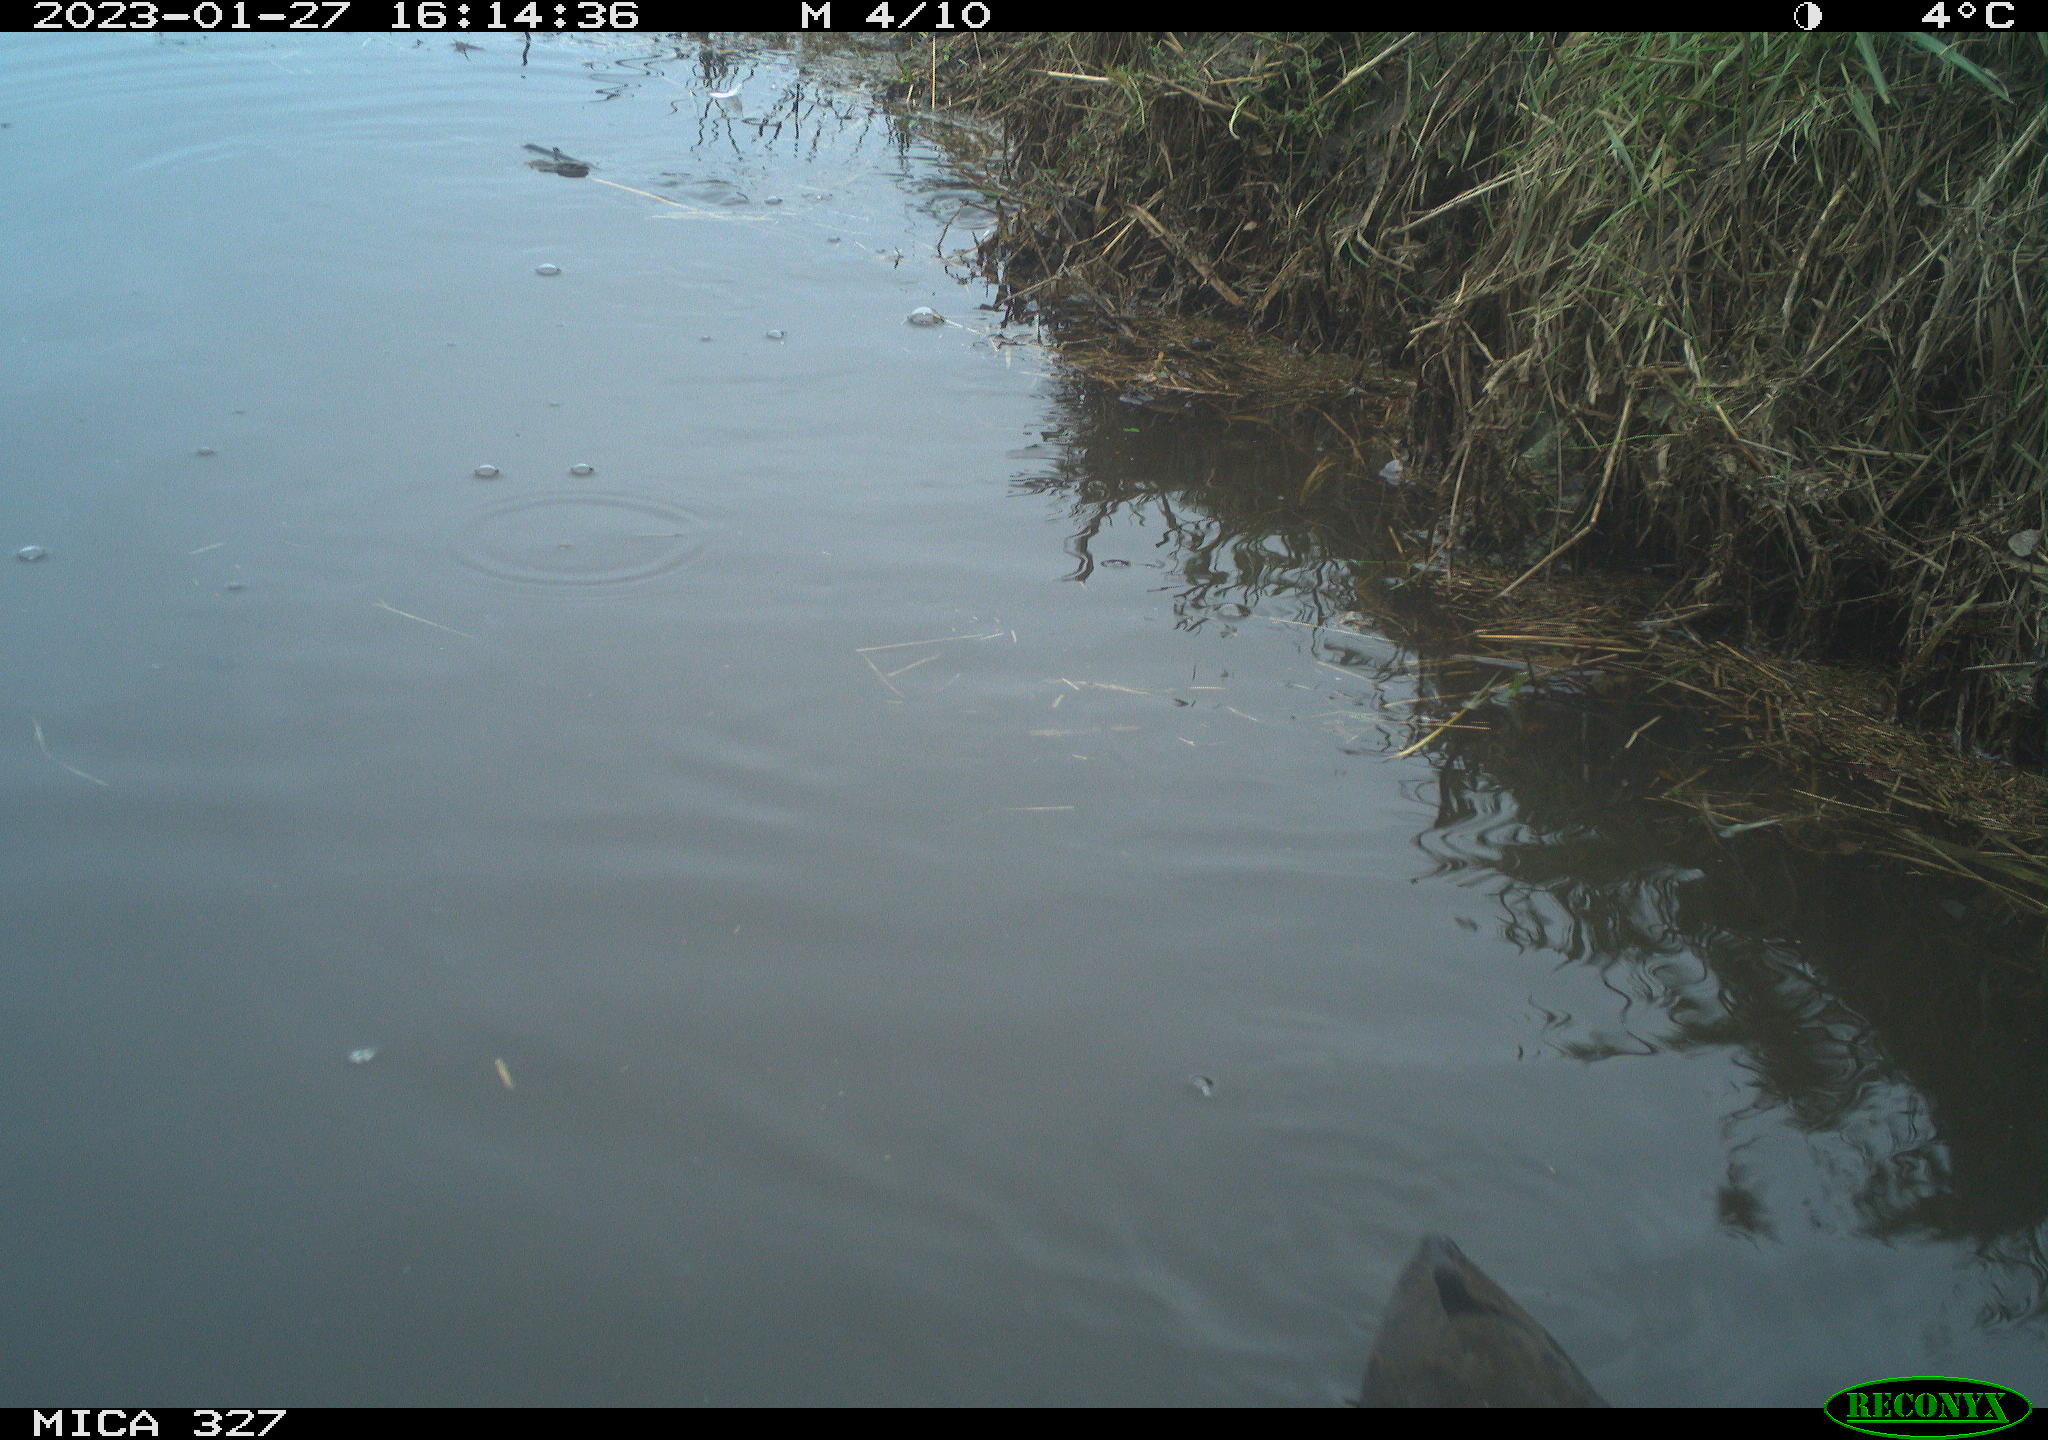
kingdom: Animalia
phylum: Chordata
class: Aves
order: Gruiformes
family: Rallidae
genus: Gallinula
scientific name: Gallinula chloropus
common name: Common moorhen
